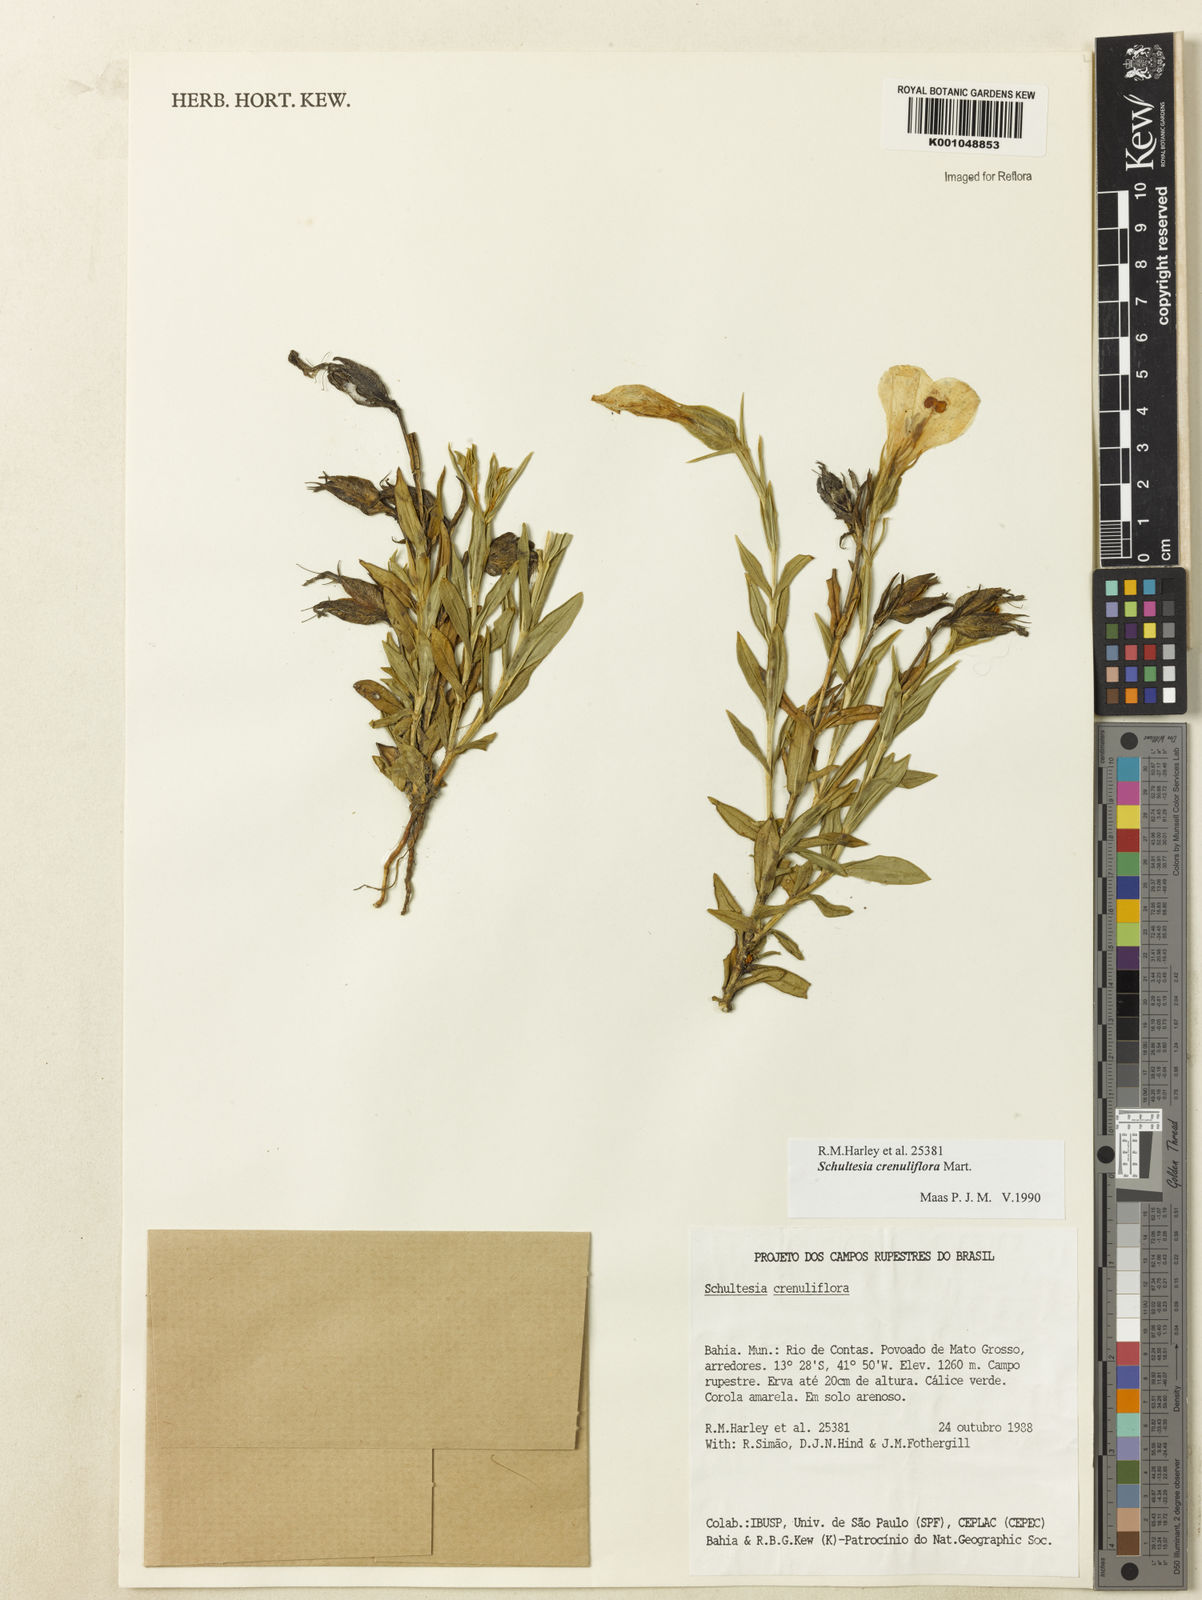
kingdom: Plantae
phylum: Tracheophyta
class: Magnoliopsida
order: Gentianales
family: Gentianaceae
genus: Schultesia
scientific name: Schultesia crenuliflora
